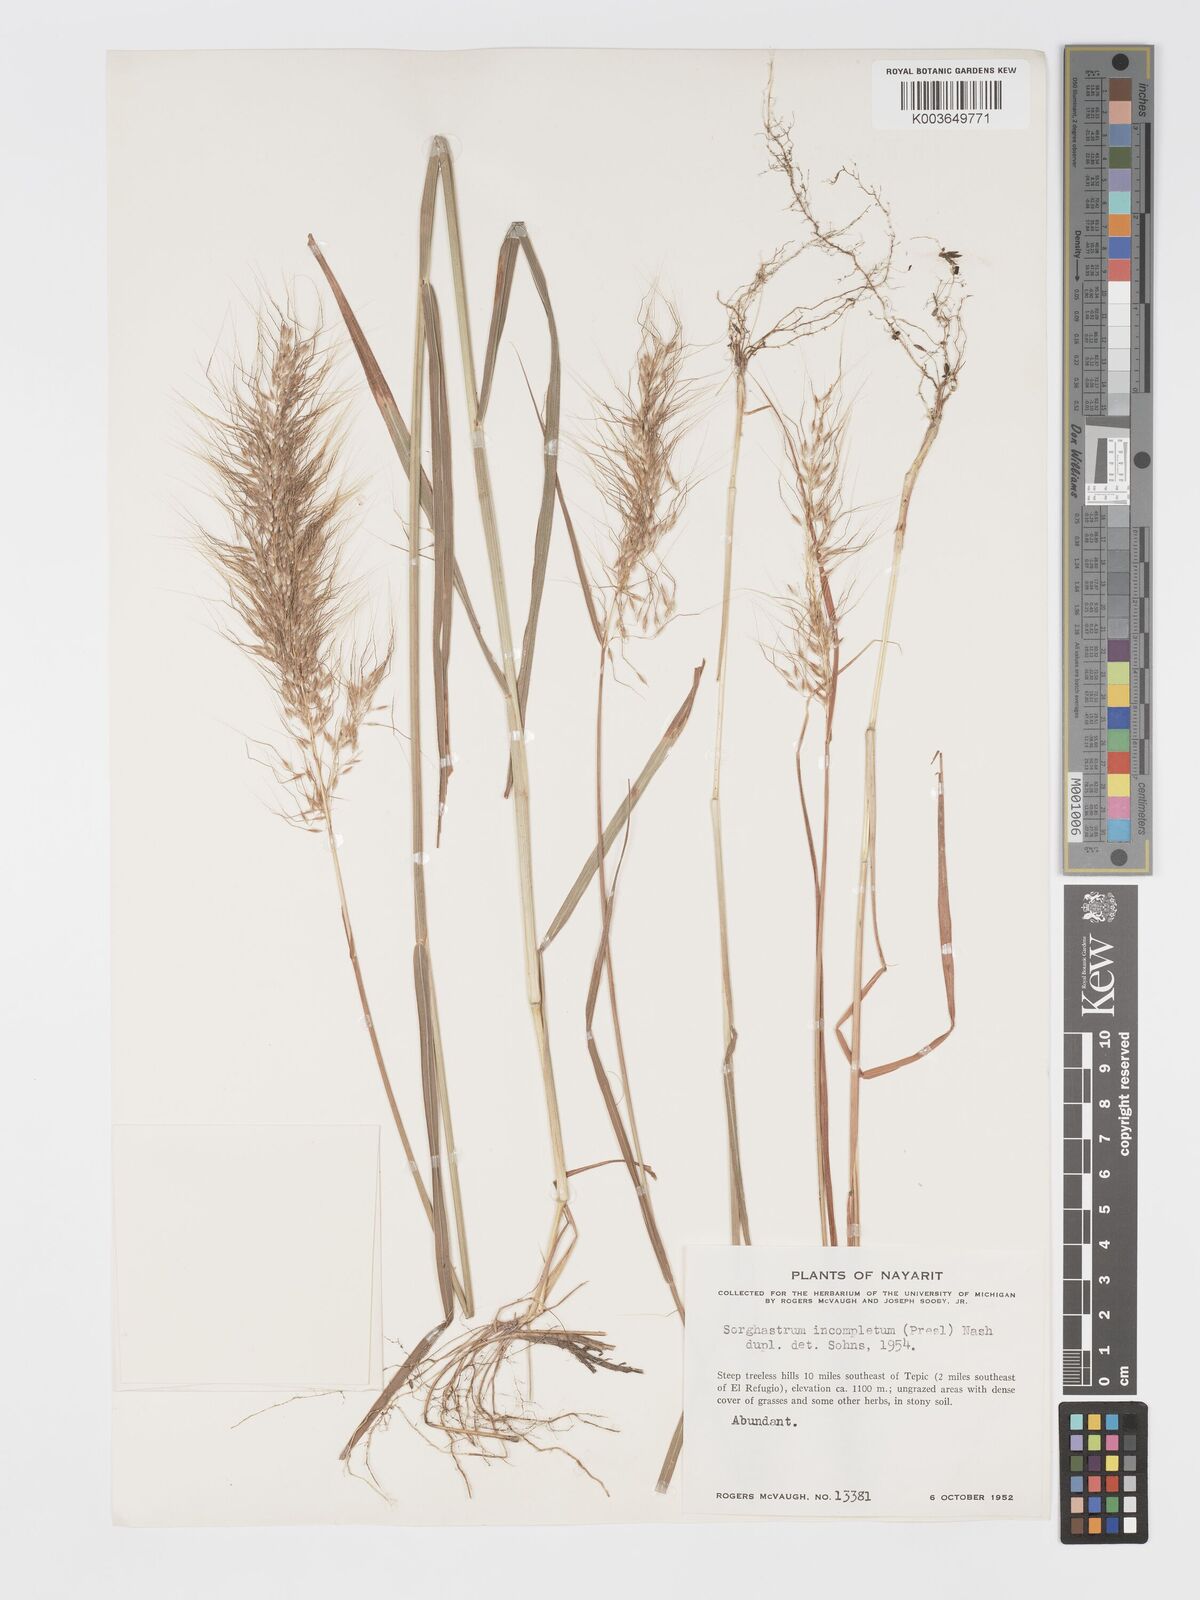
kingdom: Plantae
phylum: Tracheophyta
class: Liliopsida
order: Poales
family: Poaceae
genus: Sorghastrum
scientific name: Sorghastrum incompletum
